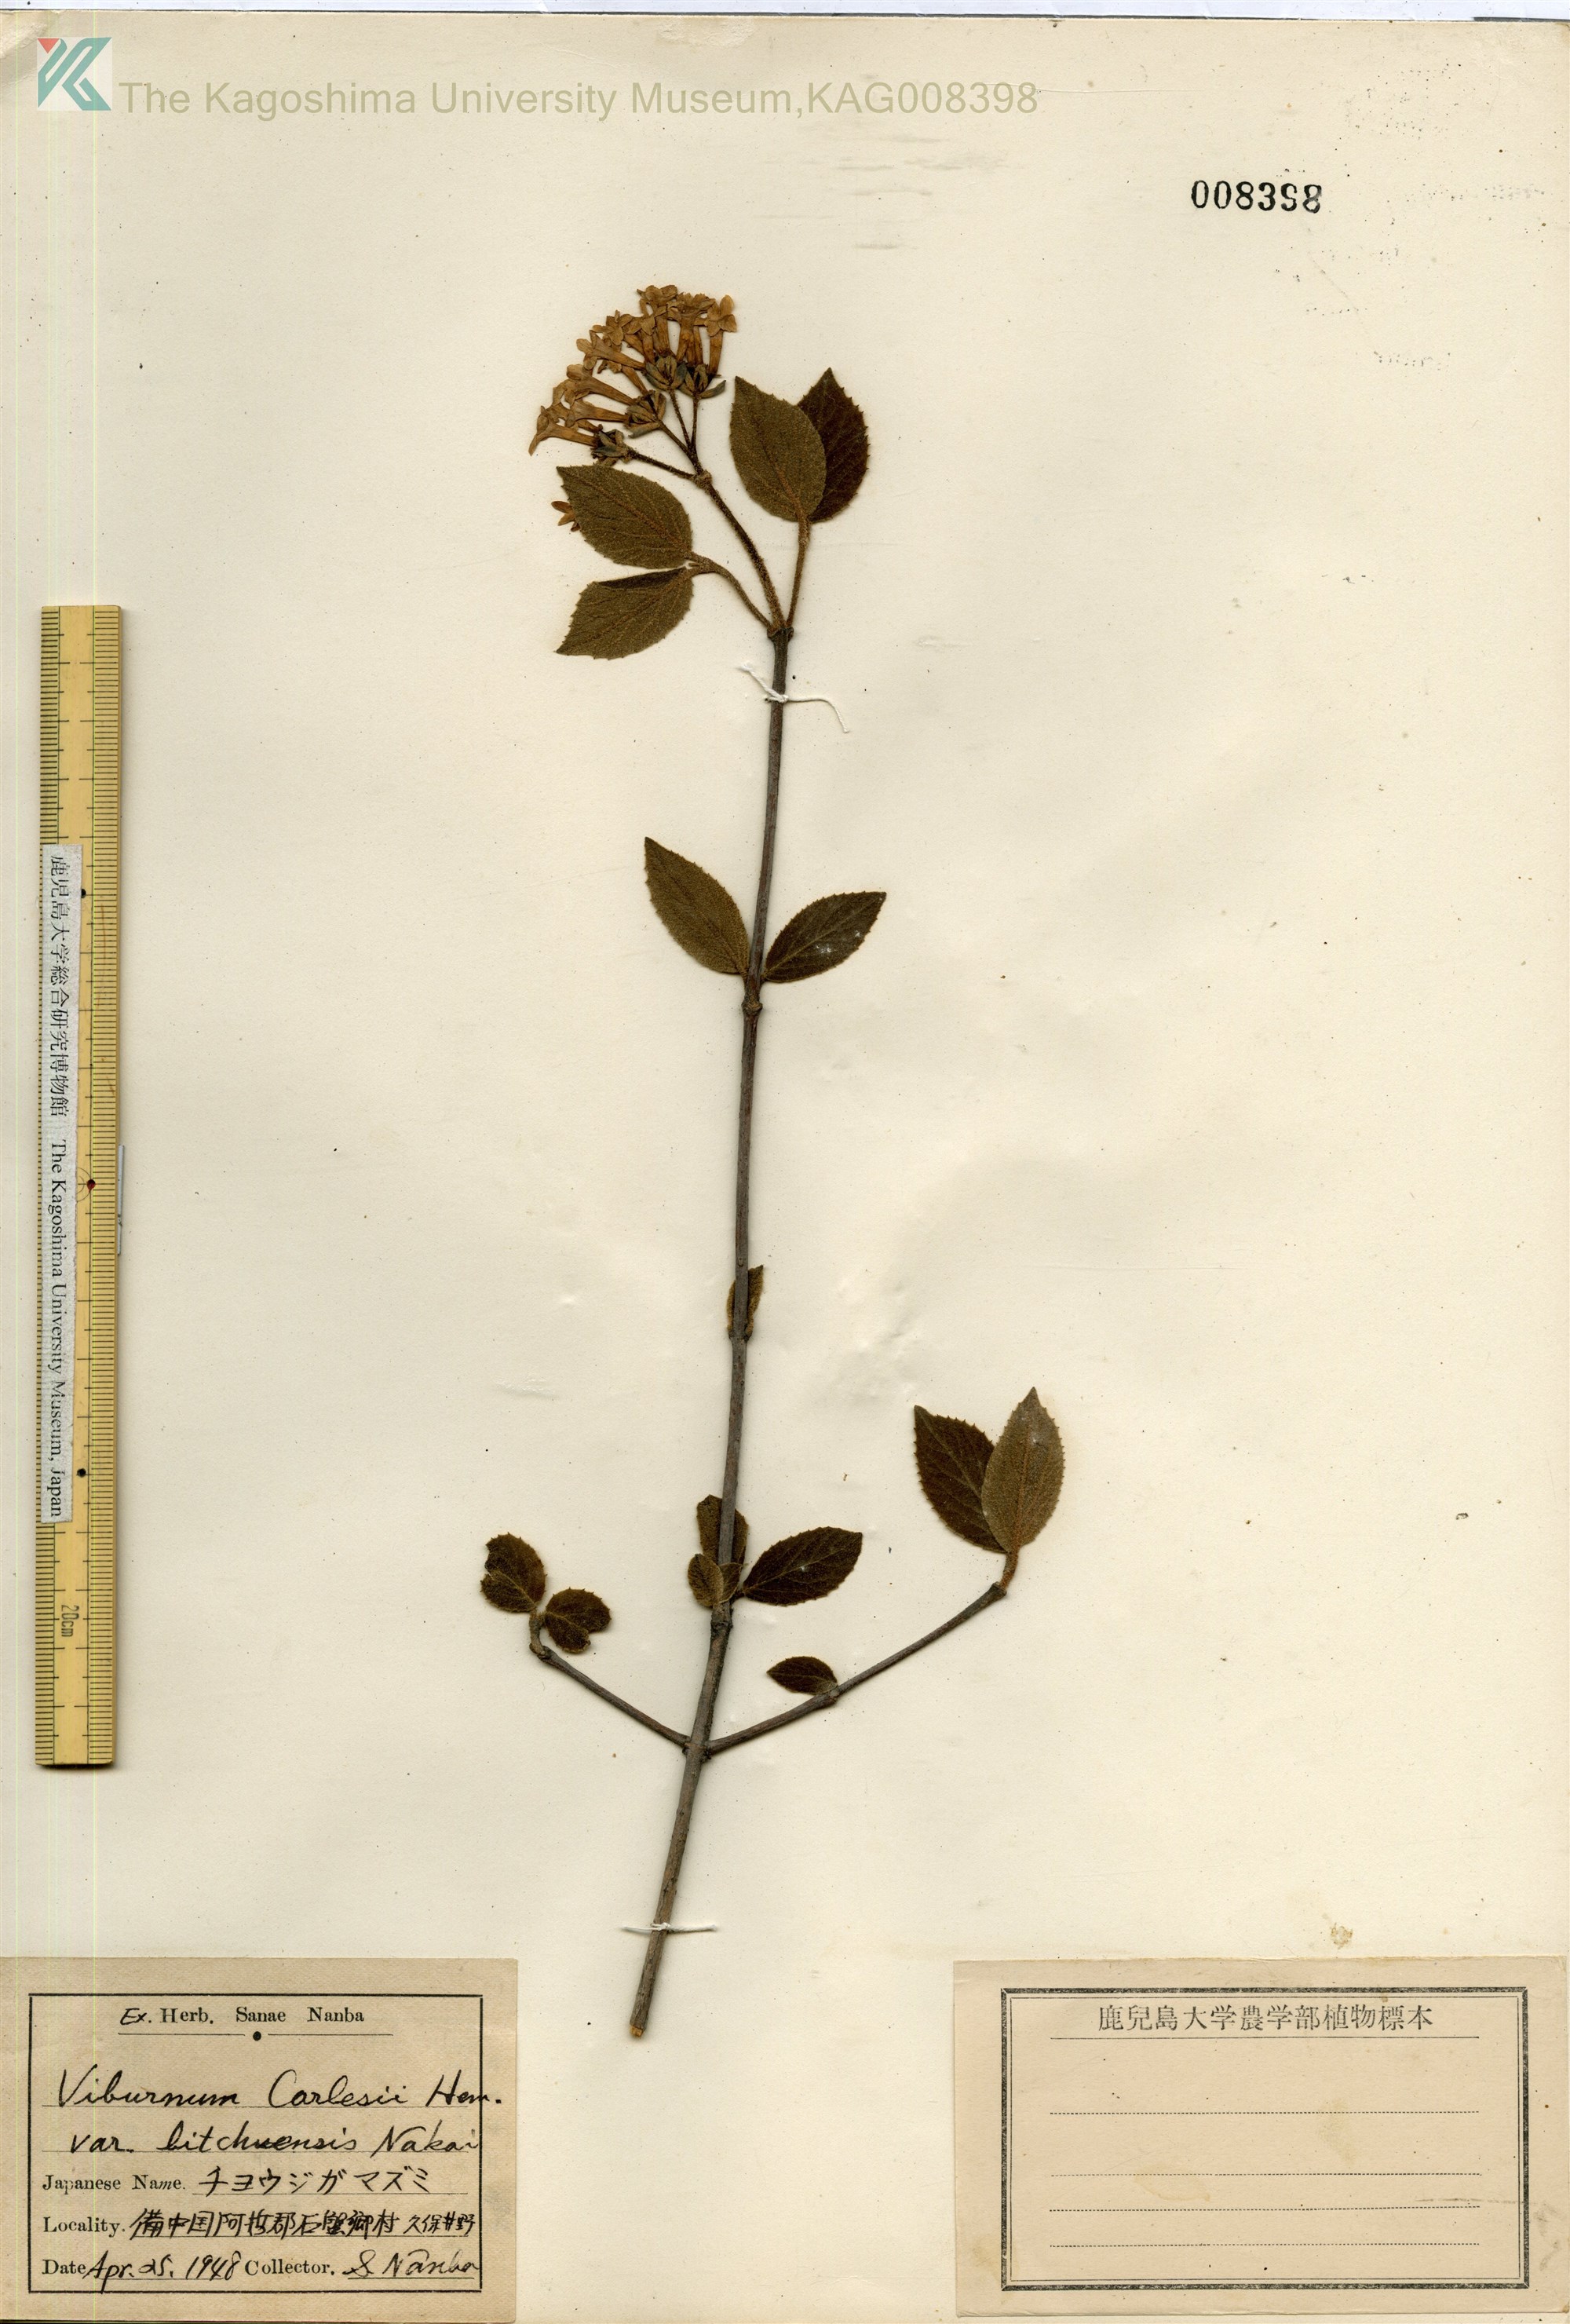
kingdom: Plantae
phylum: Tracheophyta
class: Magnoliopsida
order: Dipsacales
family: Viburnaceae
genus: Viburnum
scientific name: Viburnum carlesii
